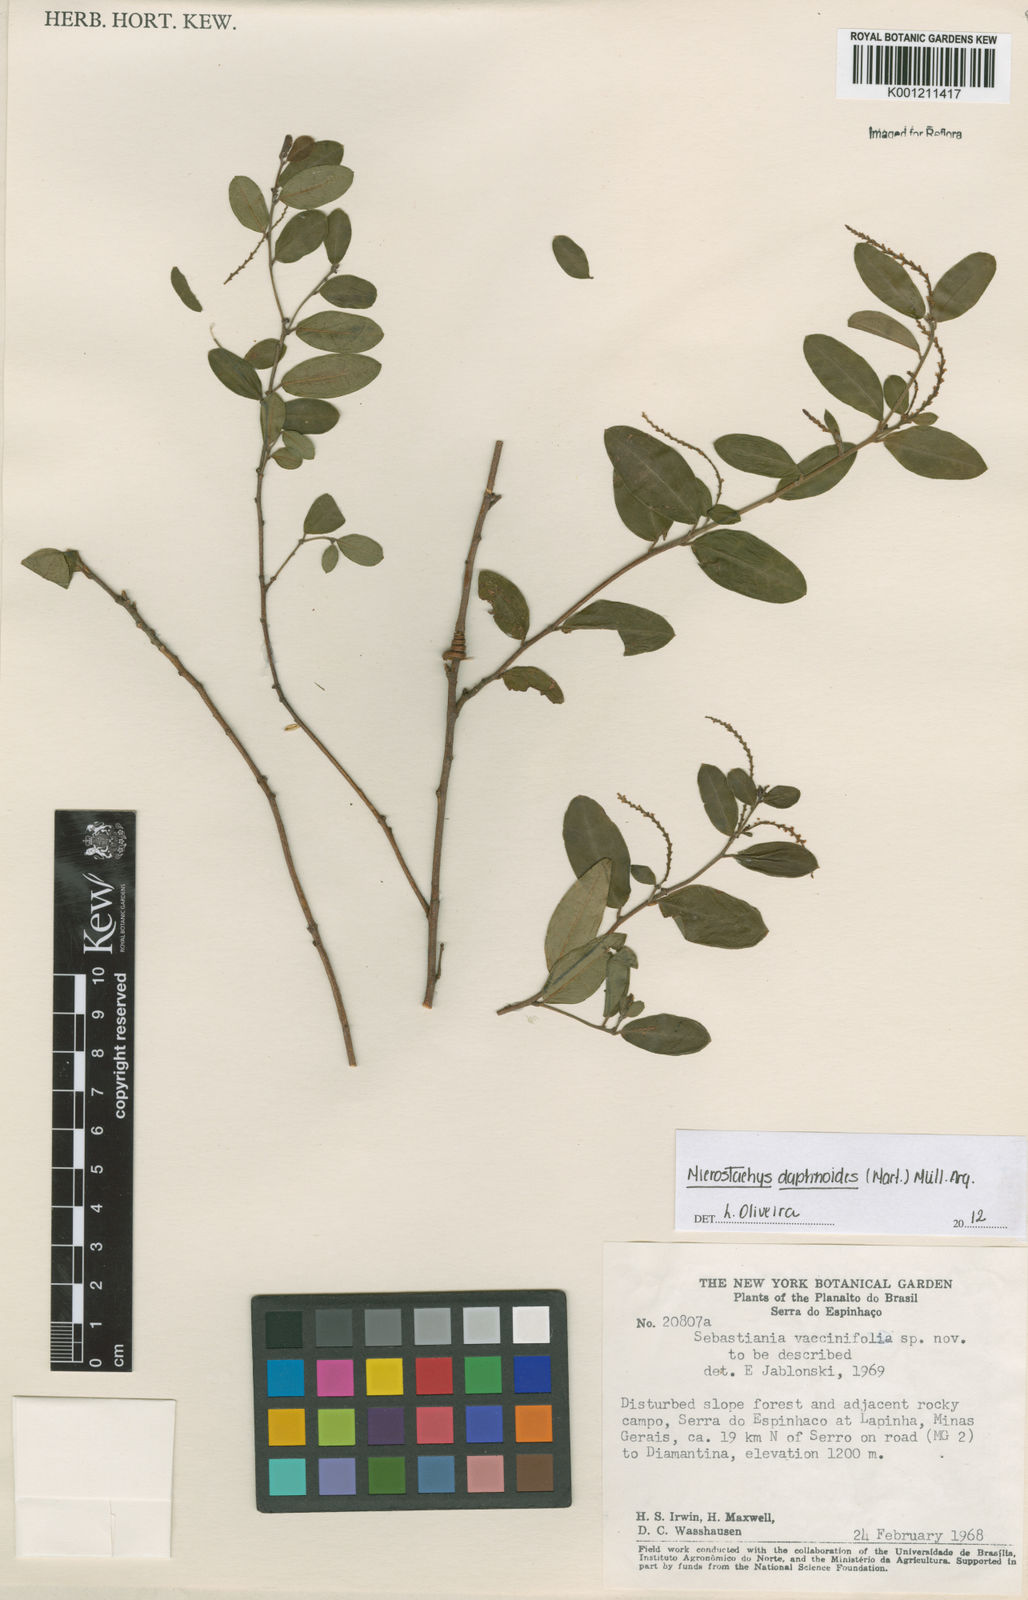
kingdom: Plantae
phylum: Tracheophyta
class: Magnoliopsida
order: Malpighiales
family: Euphorbiaceae
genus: Microstachys
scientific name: Microstachys
